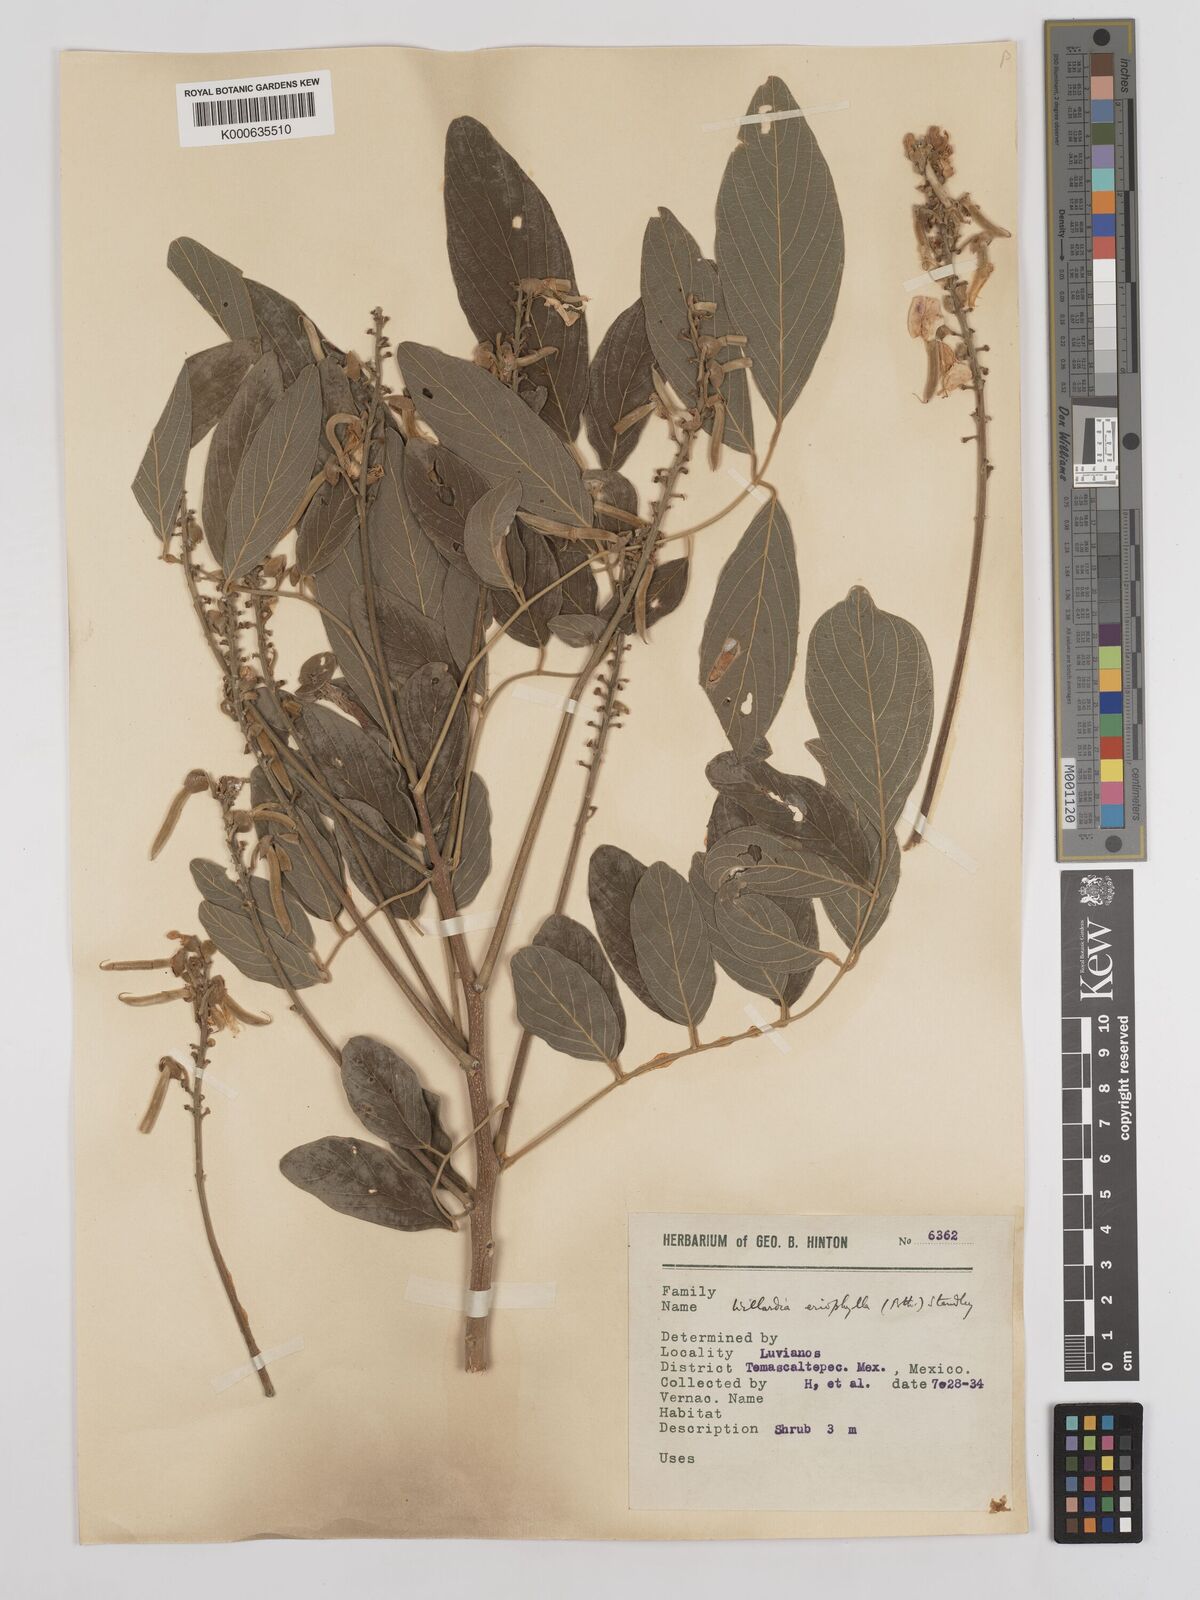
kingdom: Plantae
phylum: Tracheophyta
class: Magnoliopsida
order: Fabales
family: Fabaceae
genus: Lonchocarpus
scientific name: Lonchocarpus argyrotrichus
